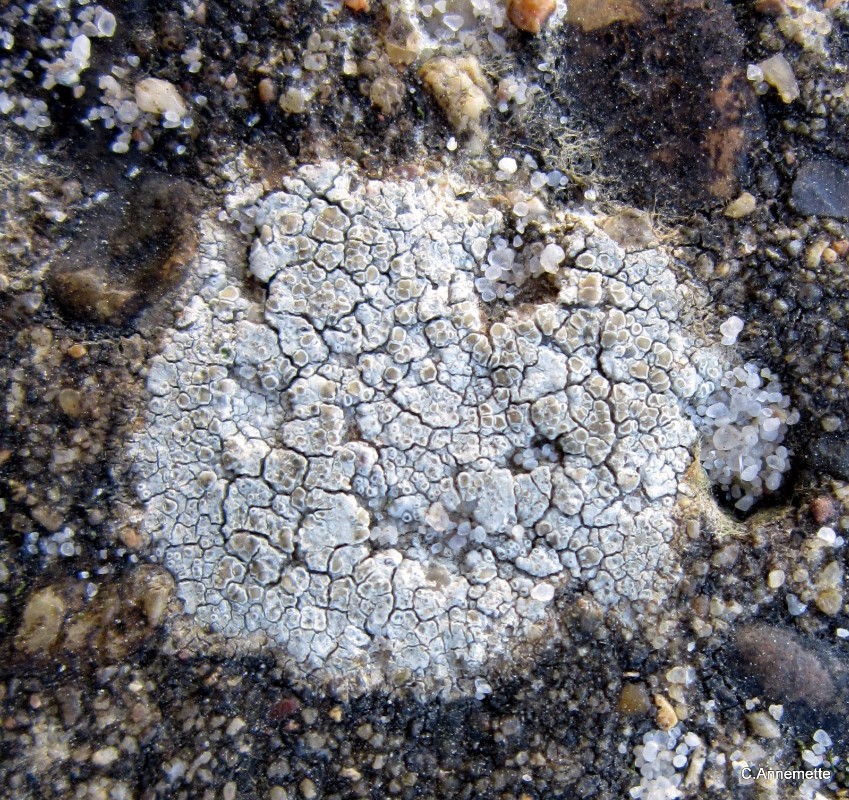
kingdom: Fungi
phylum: Ascomycota
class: Lecanoromycetes
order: Lecanorales
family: Lecanoraceae
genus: Polyozosia
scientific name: Polyozosia albescens
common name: cement-kantskivelav
